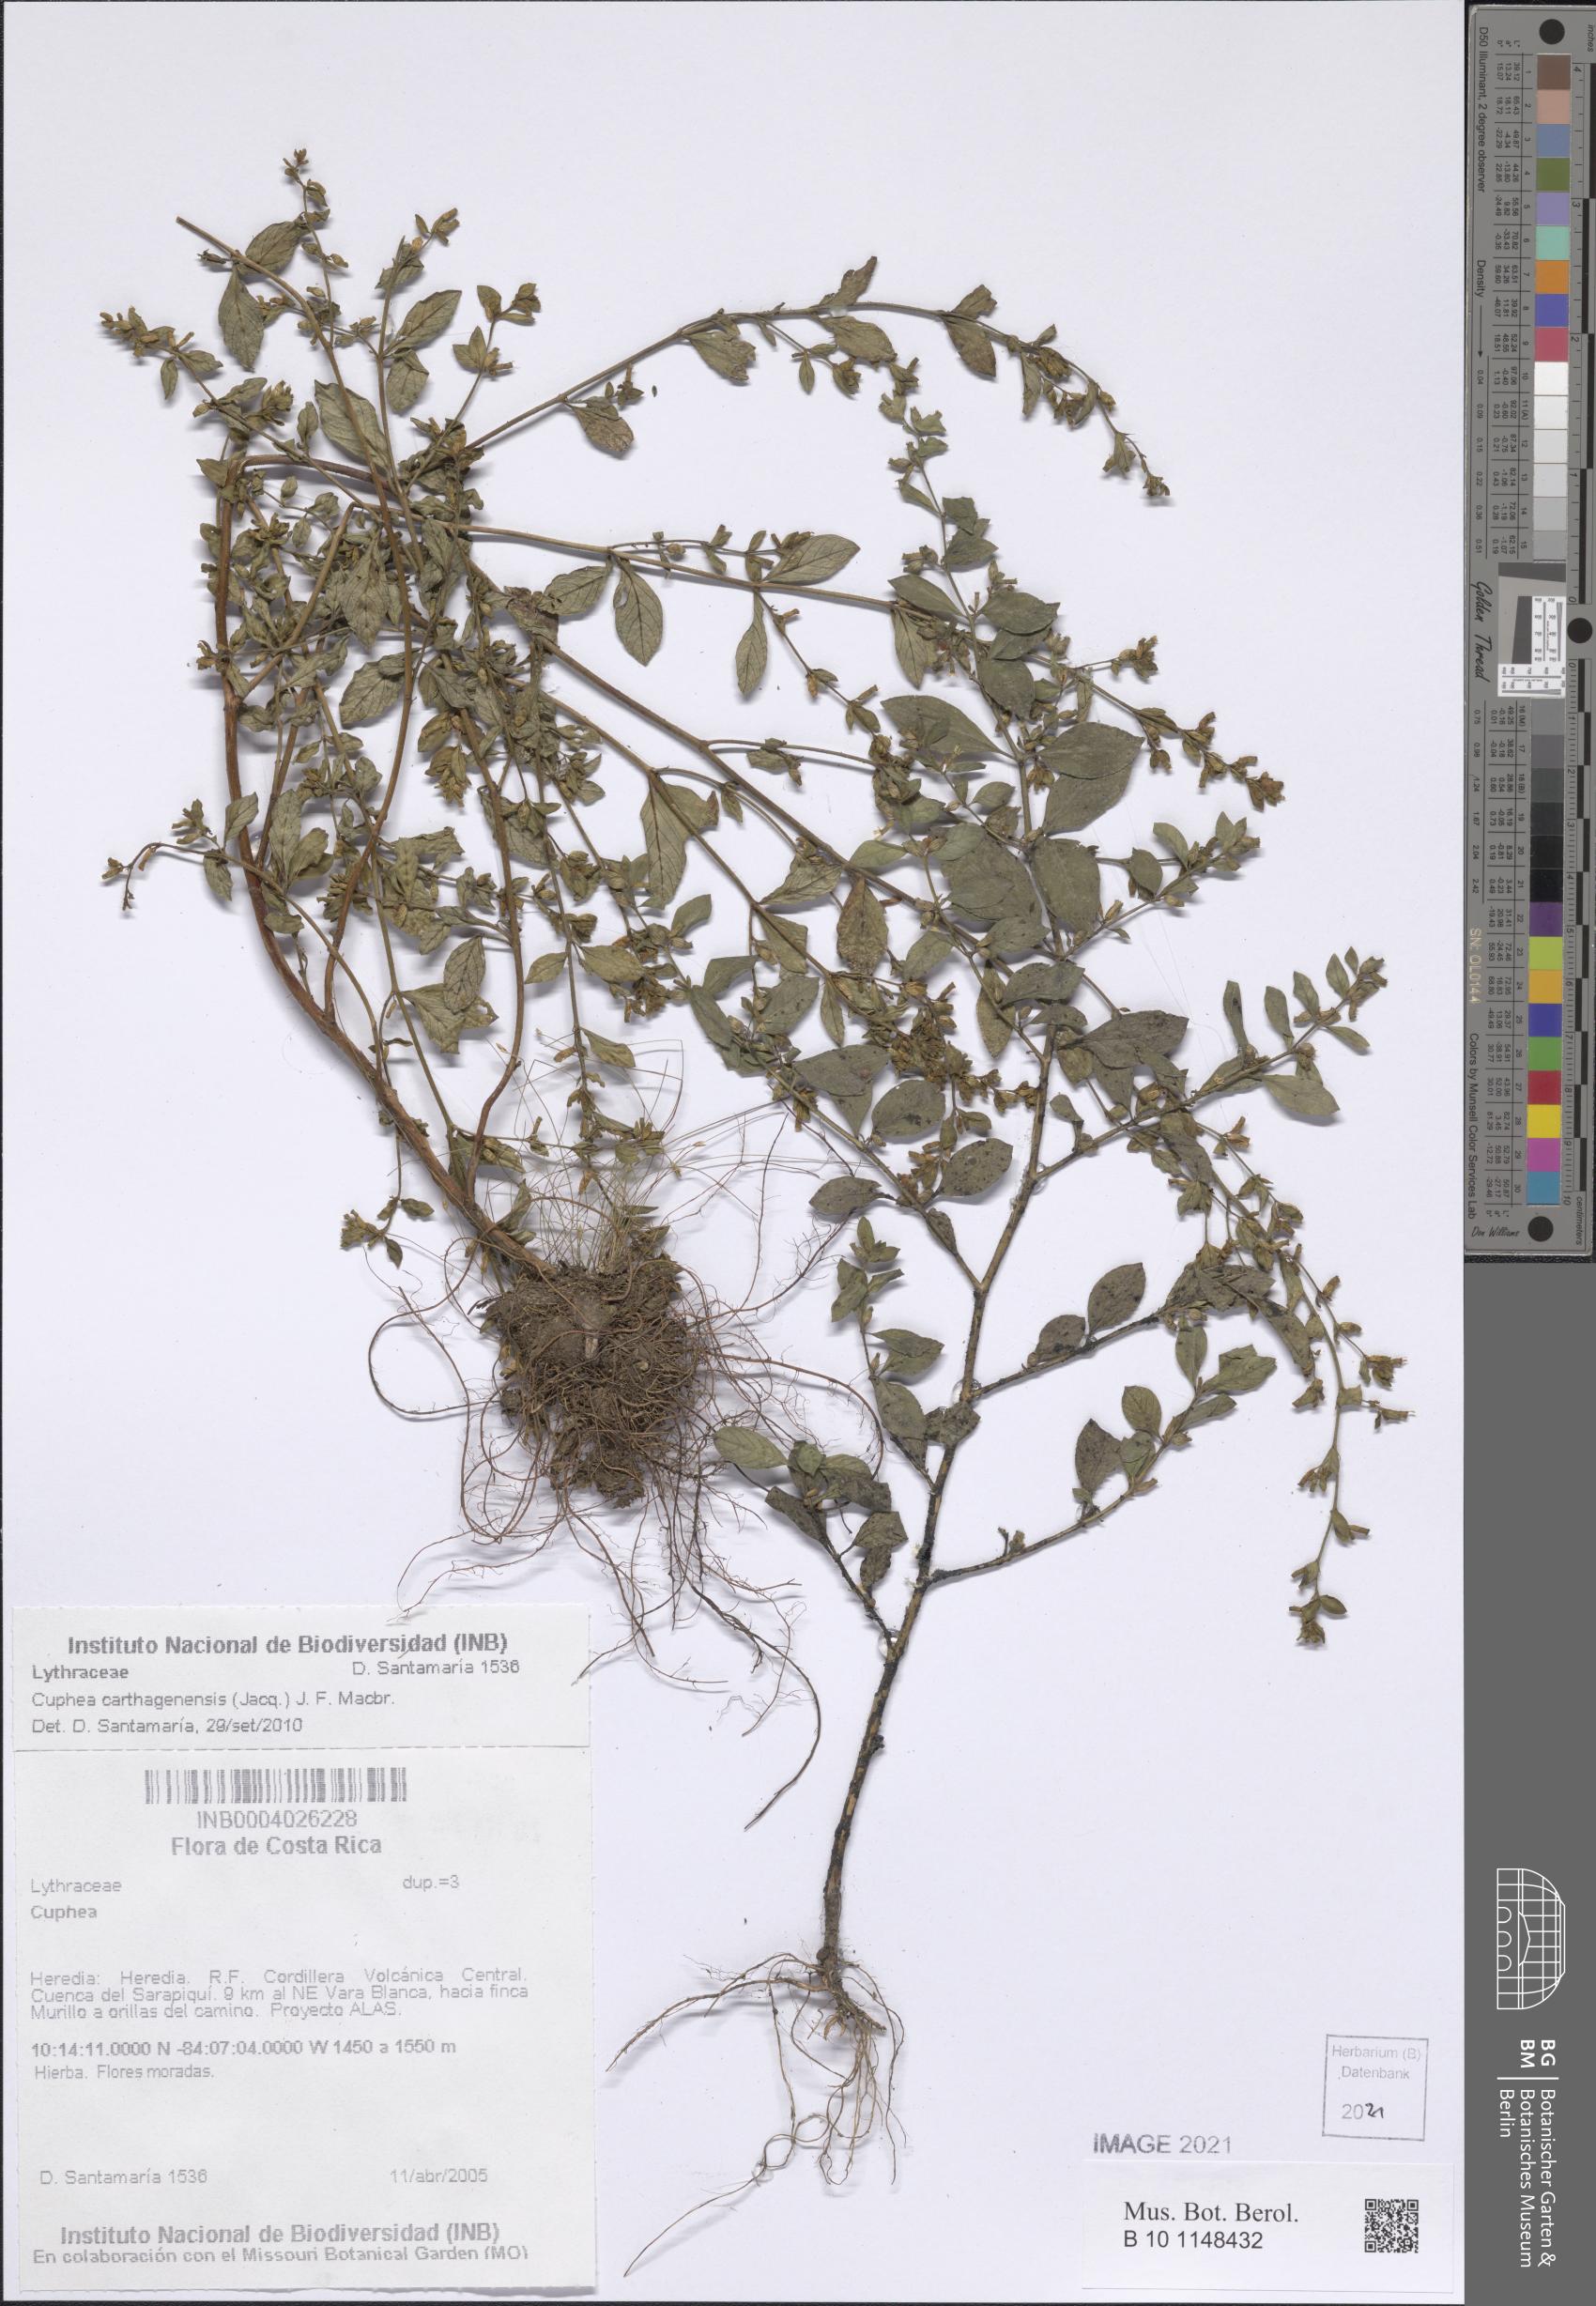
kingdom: Plantae
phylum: Tracheophyta
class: Magnoliopsida
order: Myrtales
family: Lythraceae
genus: Cuphea
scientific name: Cuphea carthagenensis
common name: Colombian waxweed
